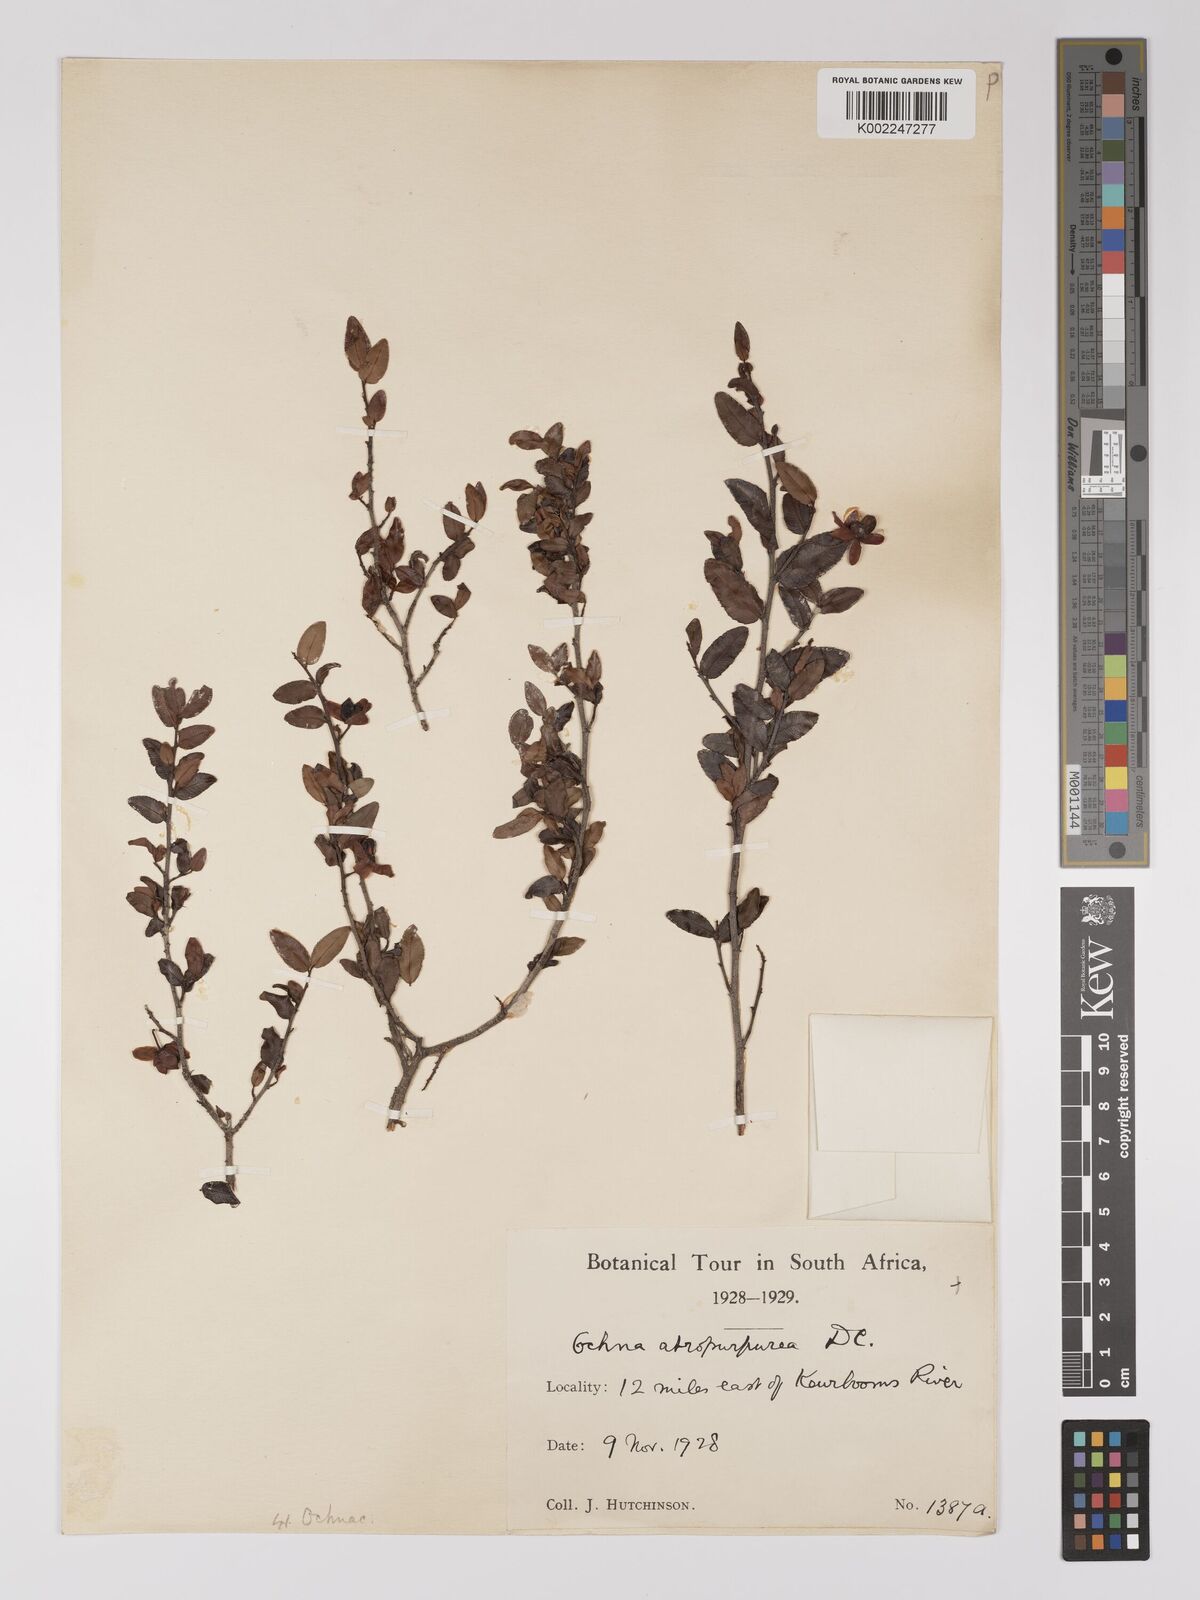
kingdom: Plantae
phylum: Tracheophyta
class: Magnoliopsida
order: Malpighiales
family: Ochnaceae
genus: Ochna
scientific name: Ochna gamostigmata
